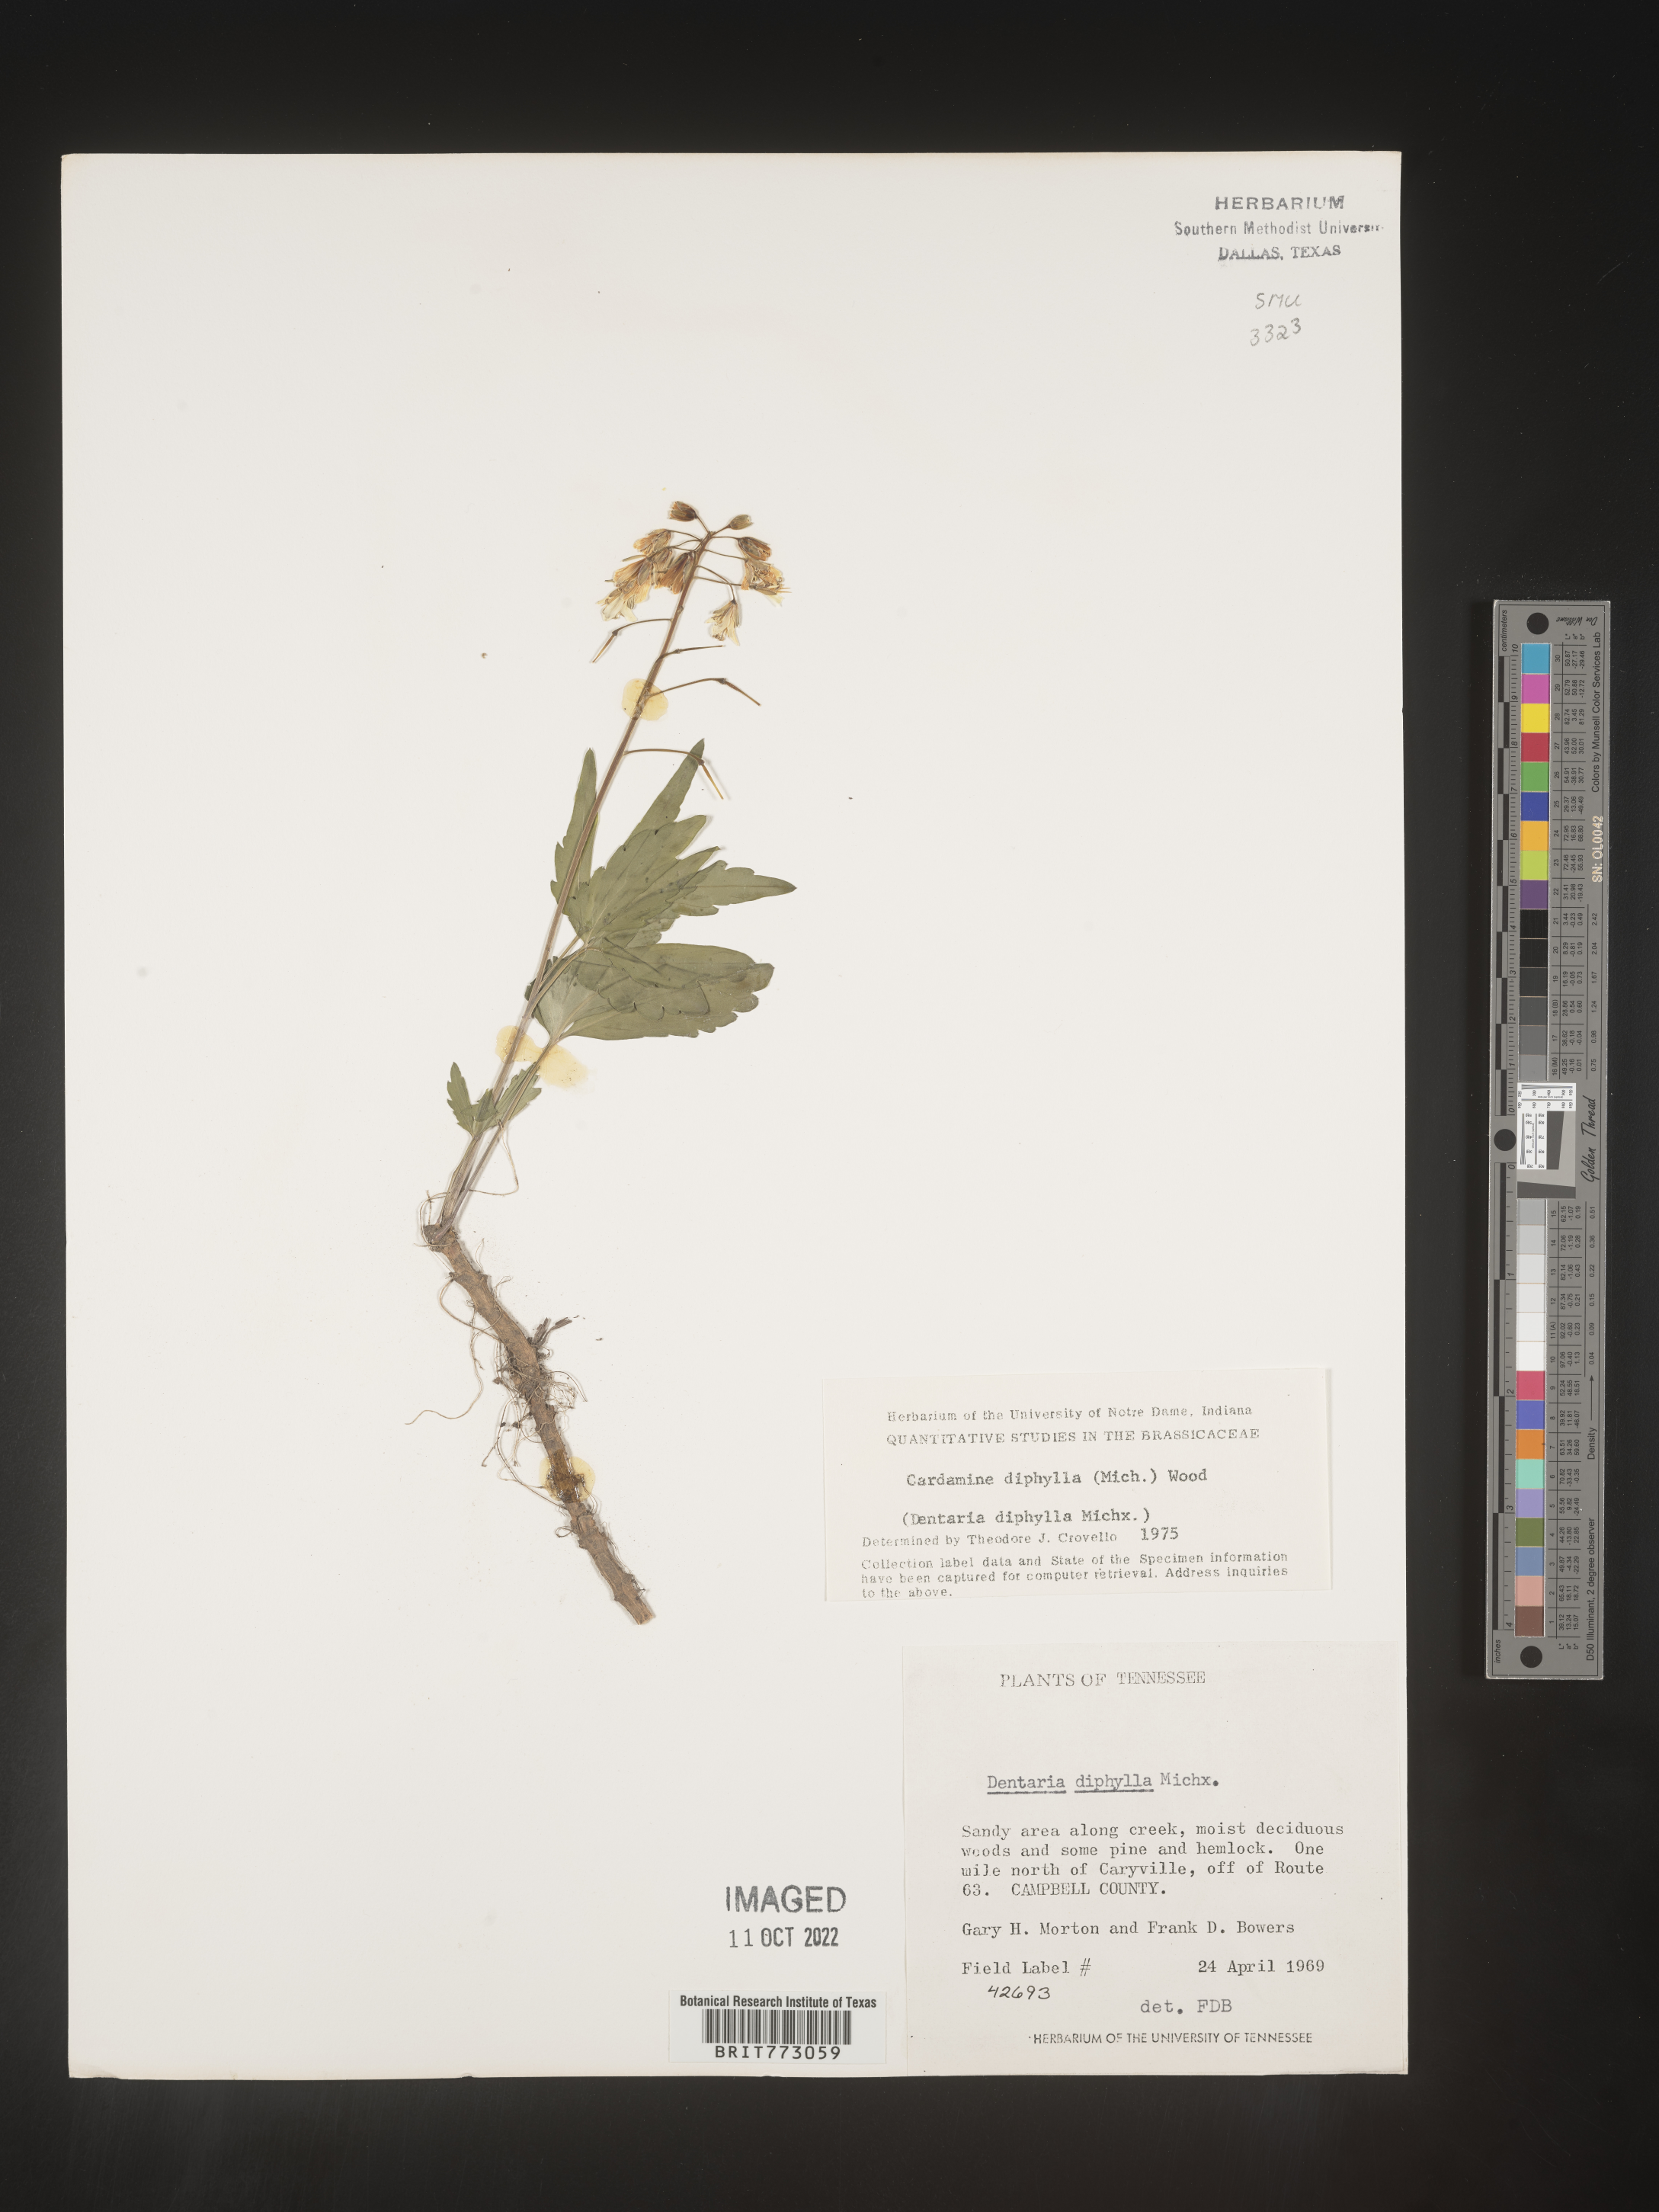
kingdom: Plantae
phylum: Tracheophyta
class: Magnoliopsida
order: Brassicales
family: Brassicaceae
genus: Cardamine
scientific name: Cardamine diphylla
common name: Broad-leaved toothwort
